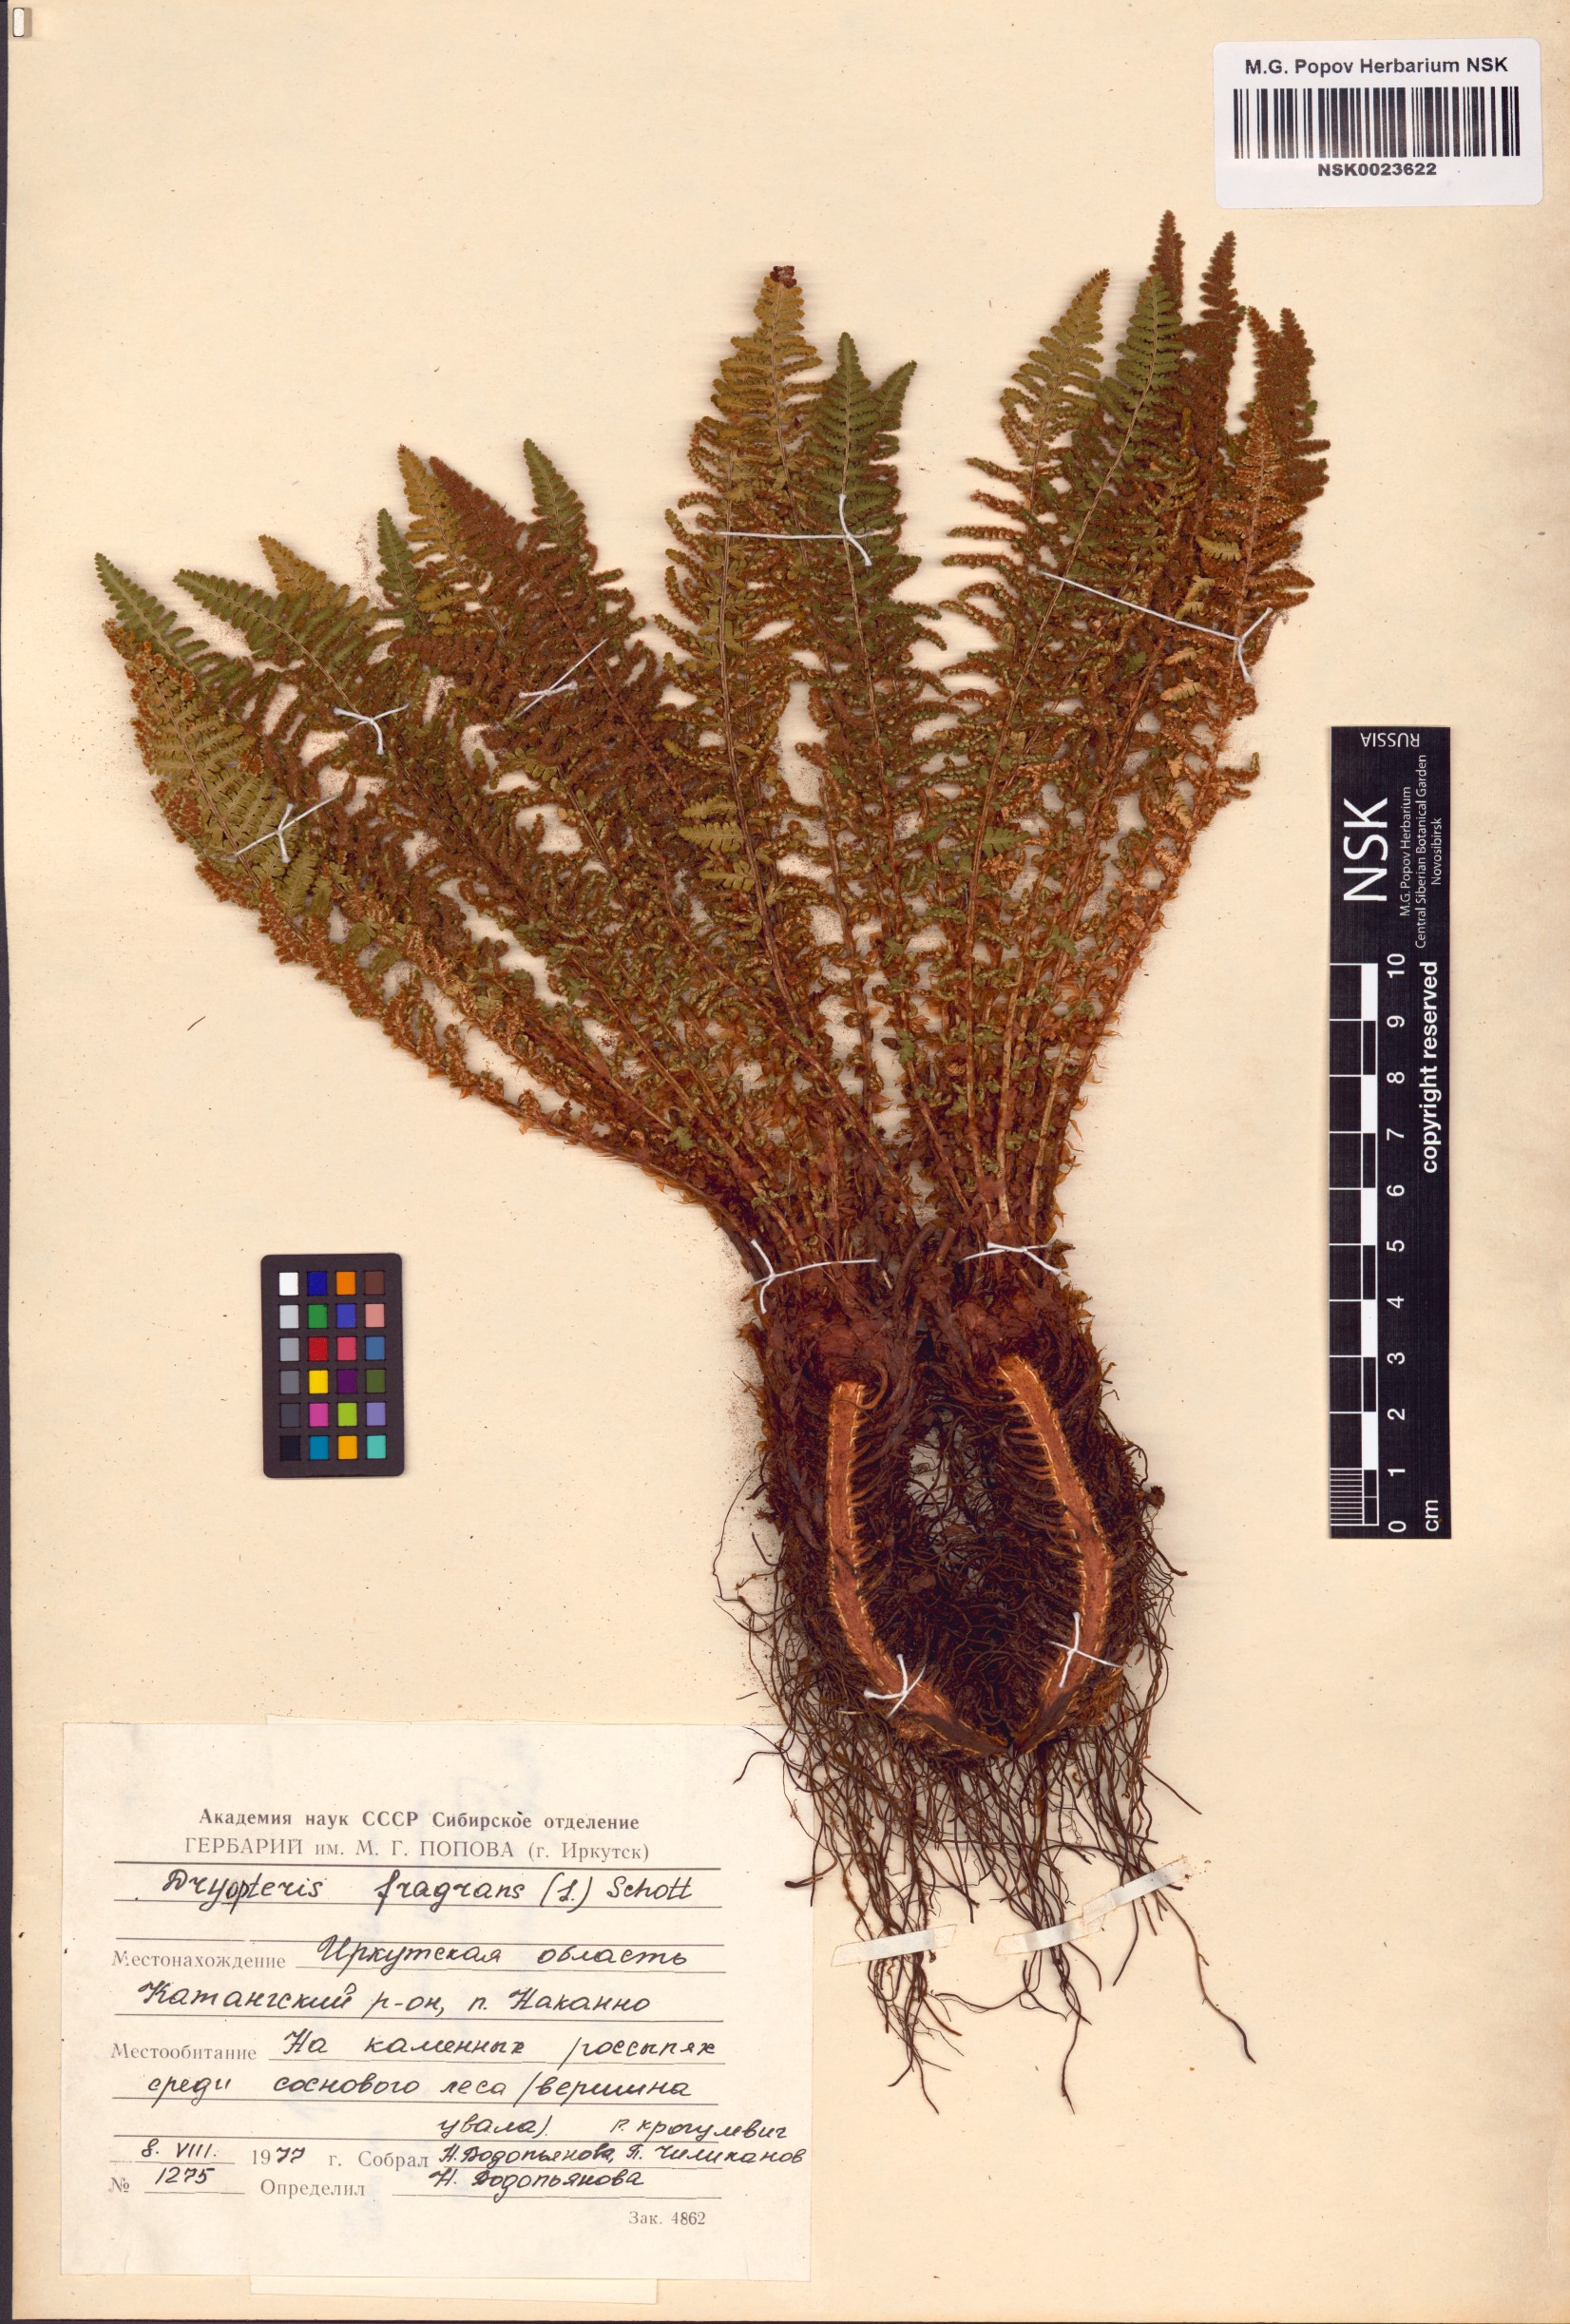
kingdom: Plantae
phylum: Tracheophyta
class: Polypodiopsida
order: Polypodiales
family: Dryopteridaceae
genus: Dryopteris
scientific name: Dryopteris fragrans
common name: Fragrant wood fern
